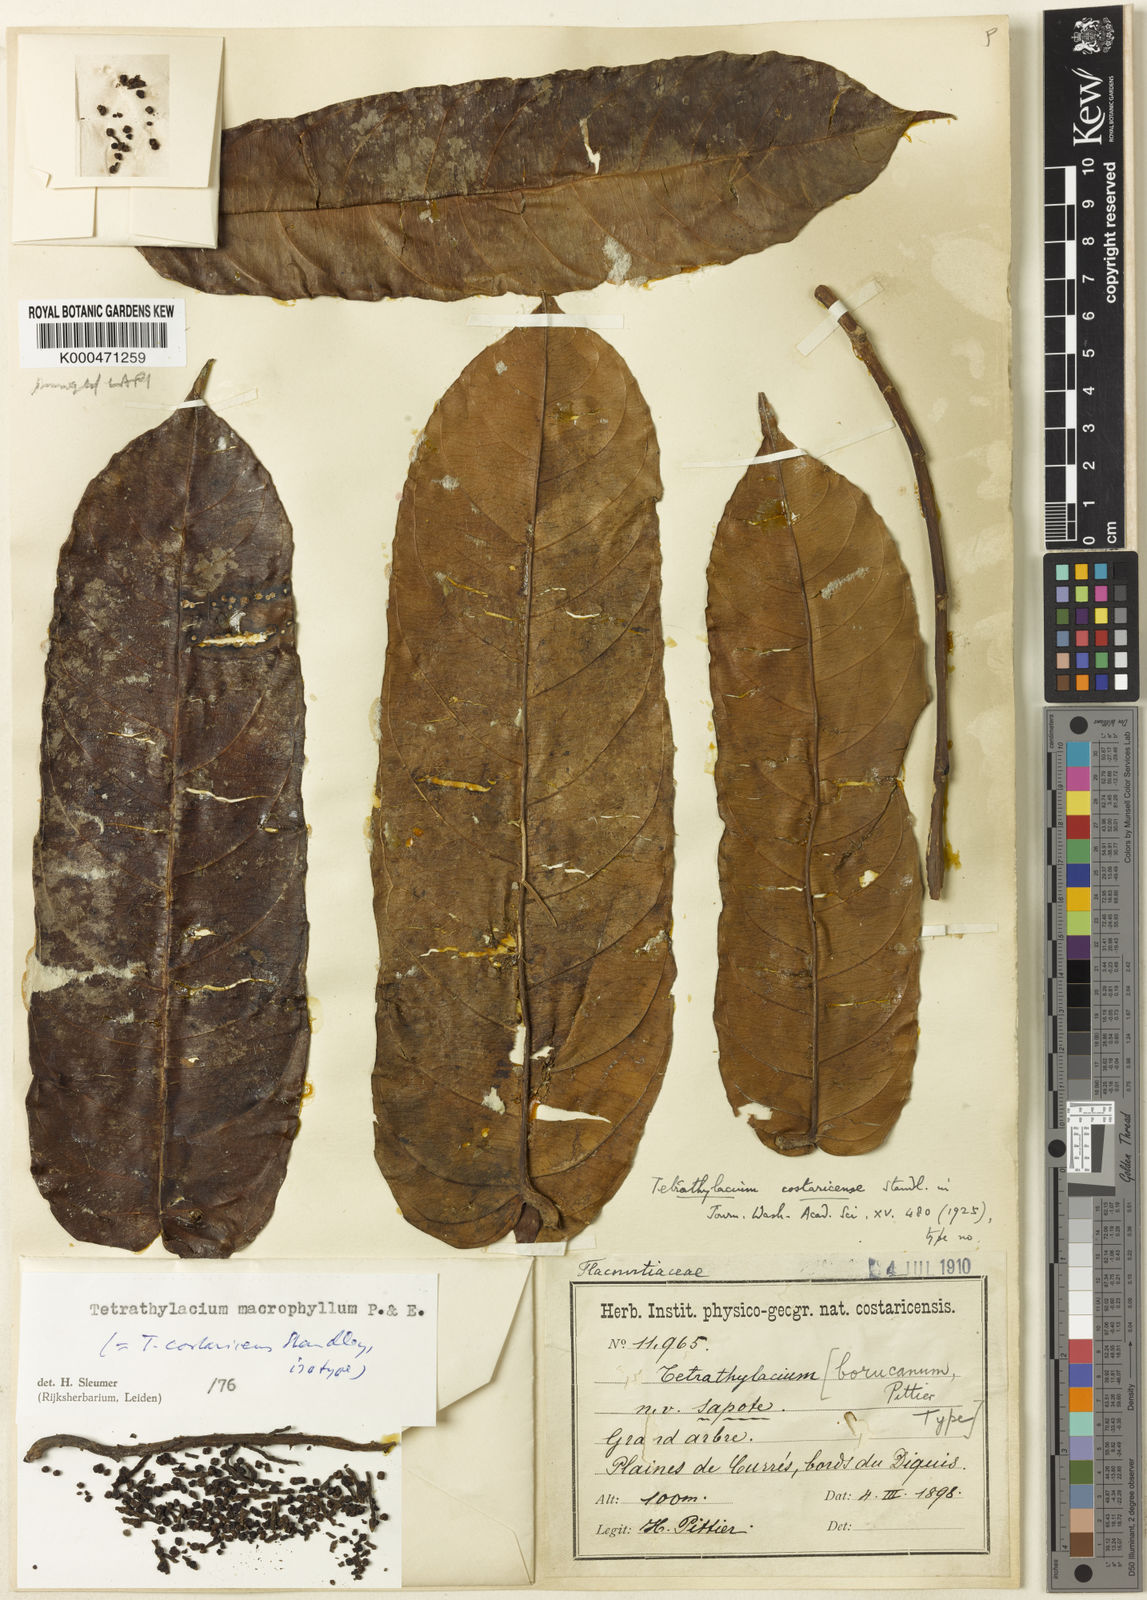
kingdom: Plantae
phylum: Tracheophyta
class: Magnoliopsida
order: Malpighiales
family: Salicaceae
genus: Tetrathylacium
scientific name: Tetrathylacium macrophyllum
